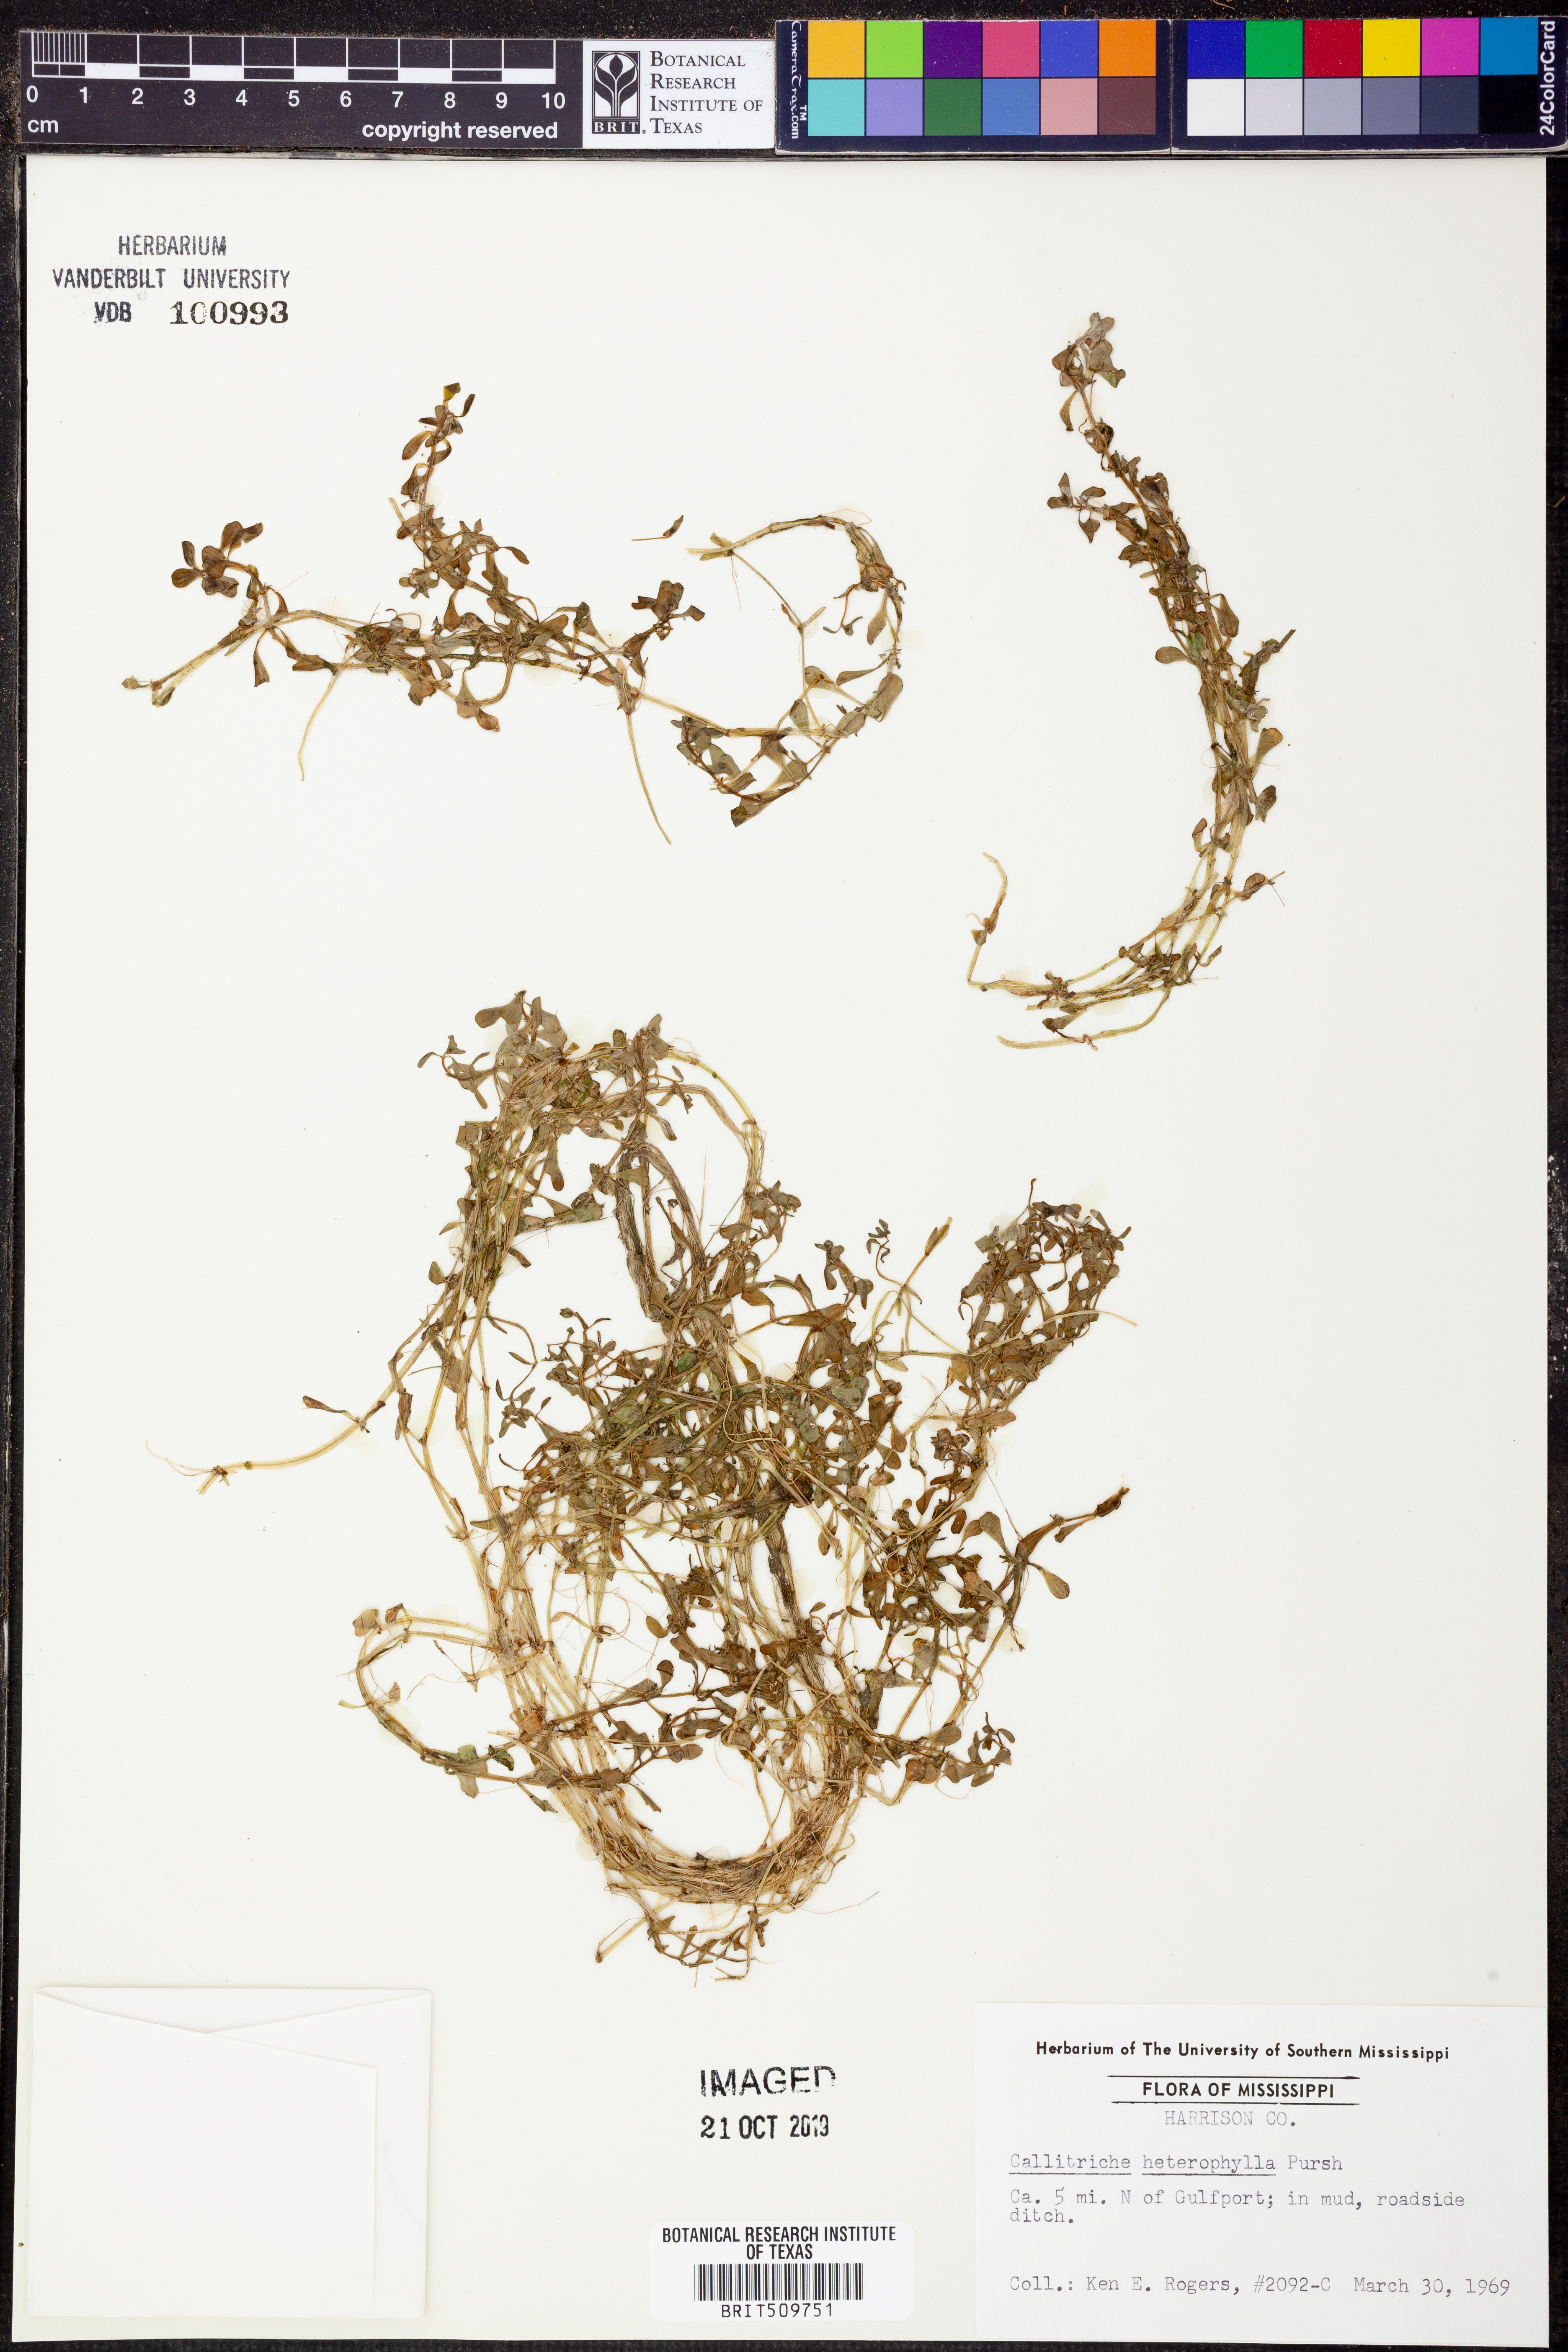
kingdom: Plantae
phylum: Tracheophyta
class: Magnoliopsida
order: Lamiales
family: Plantaginaceae
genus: Callitriche
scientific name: Callitriche heterophylla
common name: Two-headed water-starwort
